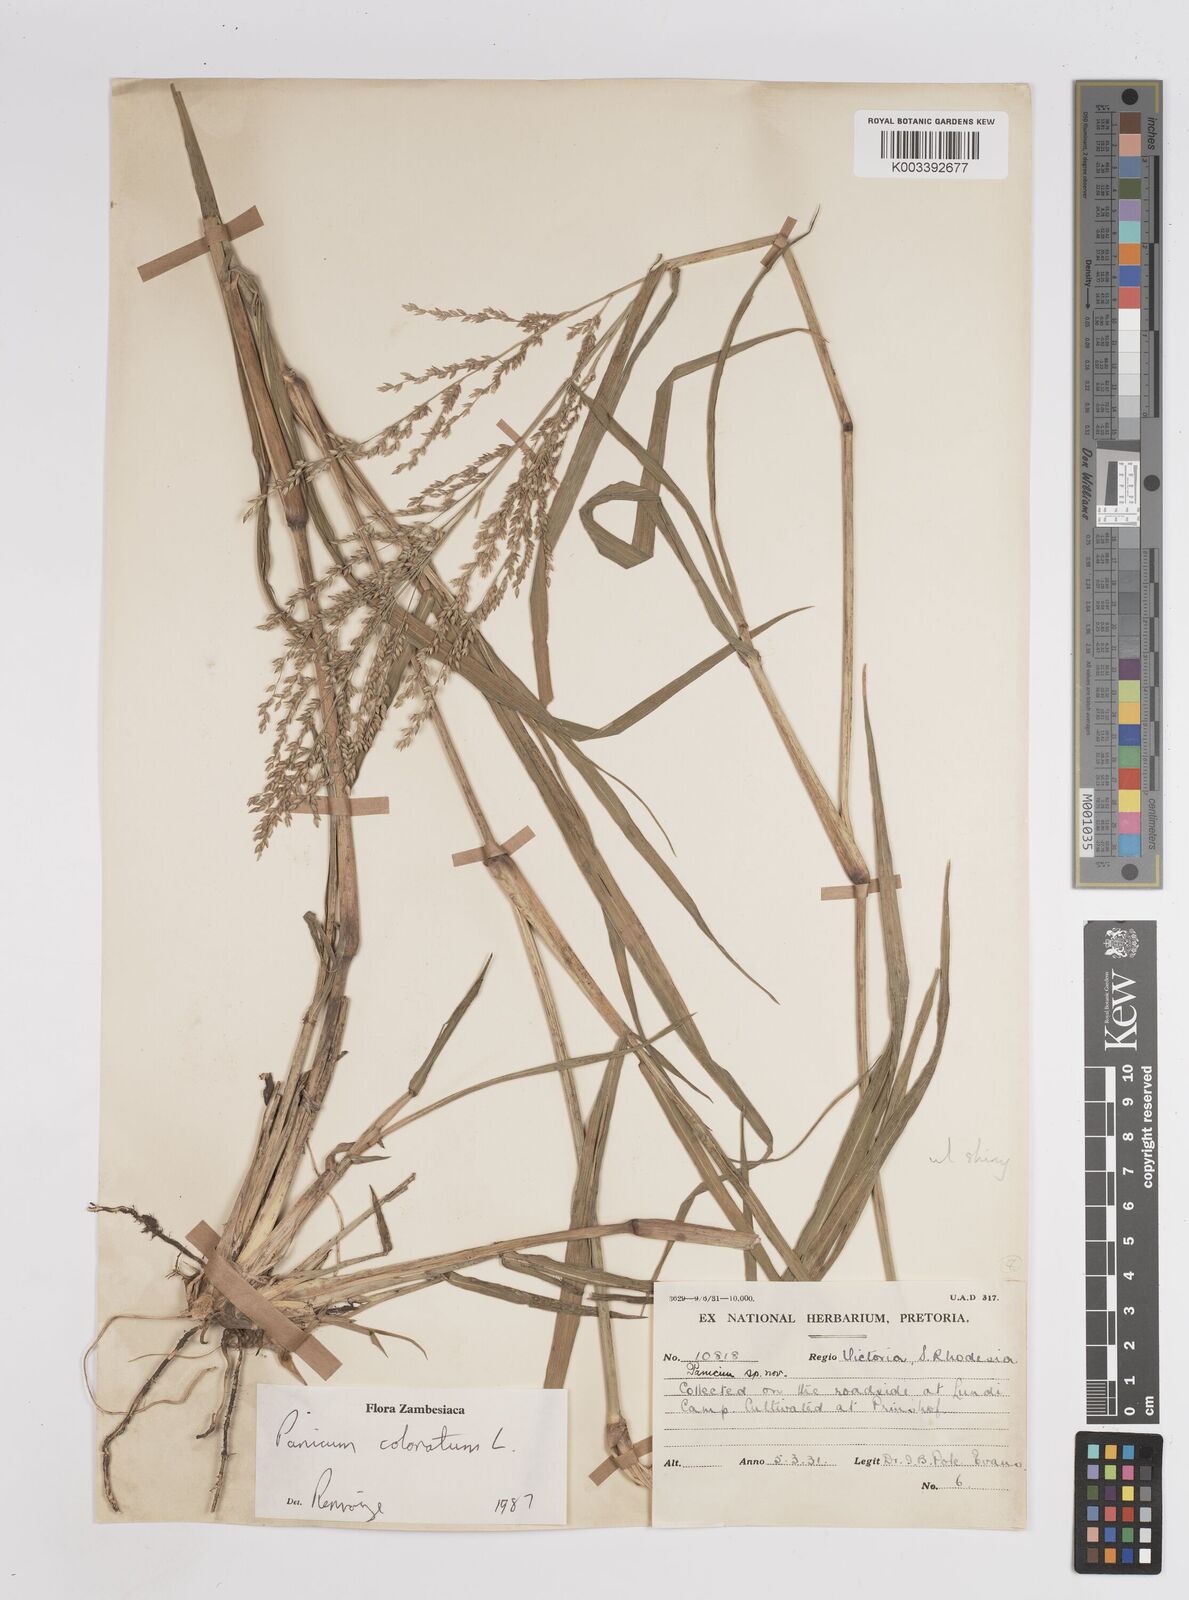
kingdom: Plantae
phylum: Tracheophyta
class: Liliopsida
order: Poales
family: Poaceae
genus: Panicum
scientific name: Panicum
